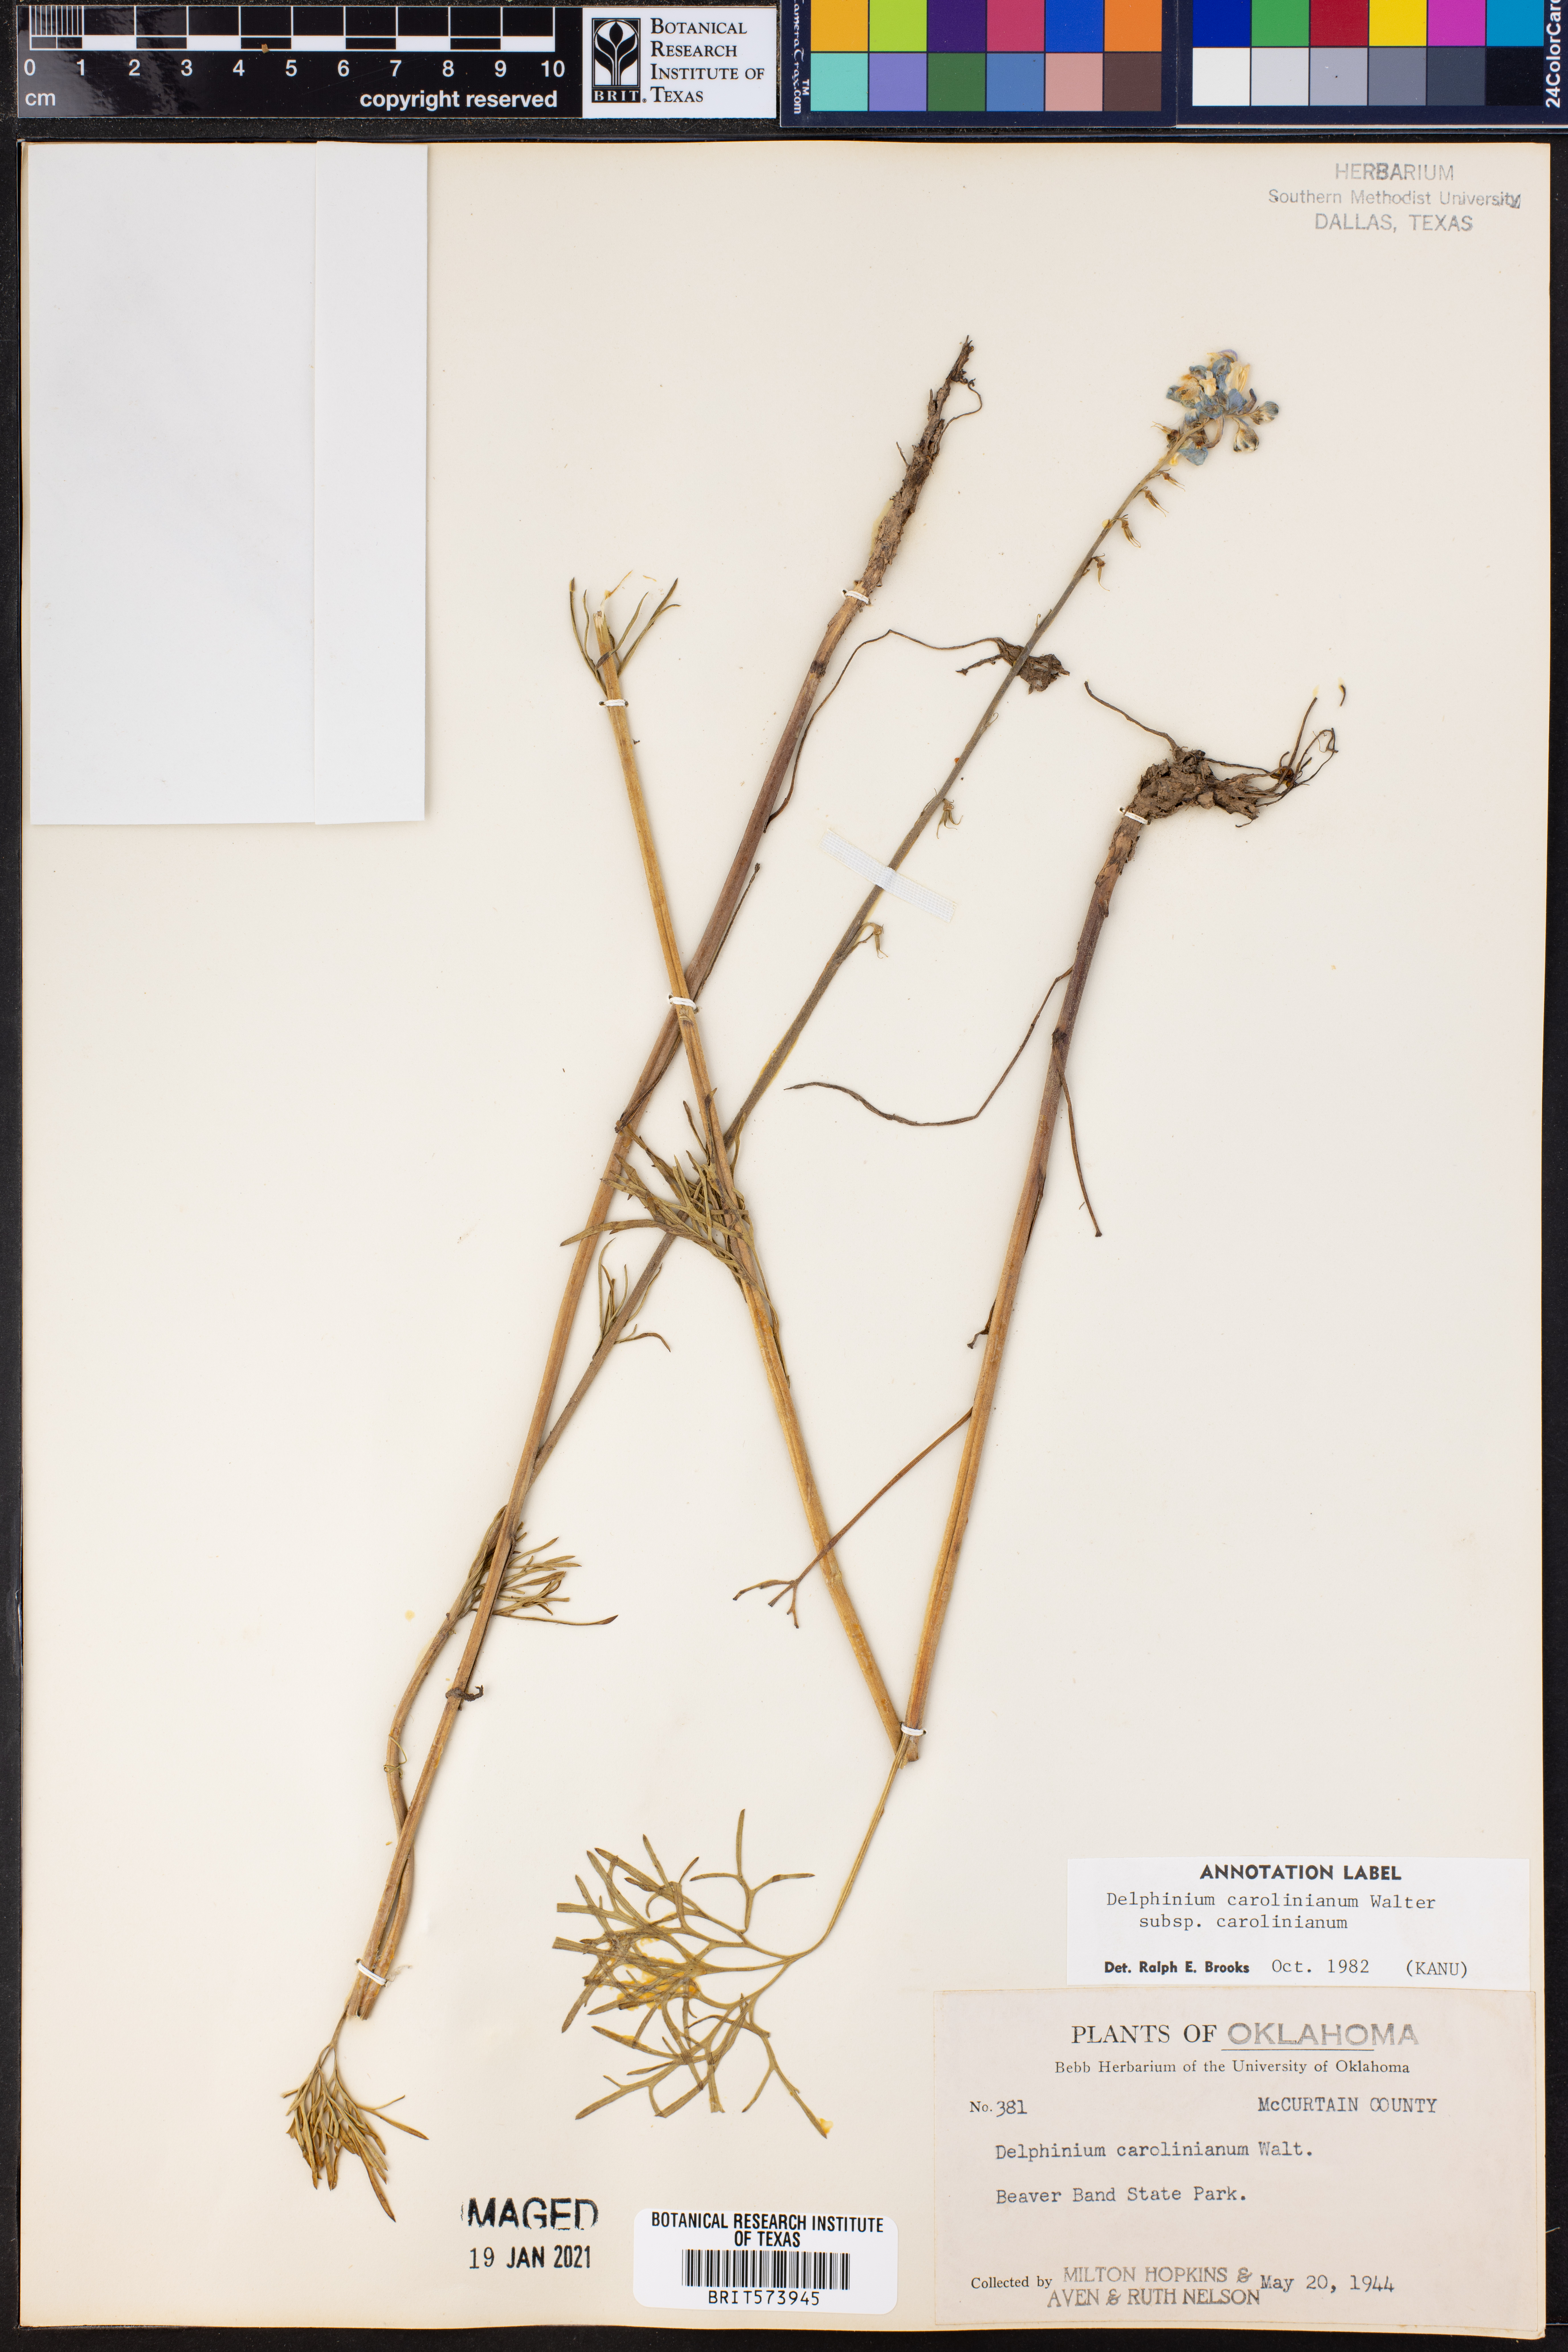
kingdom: Plantae
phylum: Tracheophyta
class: Magnoliopsida
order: Ranunculales
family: Ranunculaceae
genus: Delphinium
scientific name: Delphinium carolinianum
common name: Carolina larkspur
